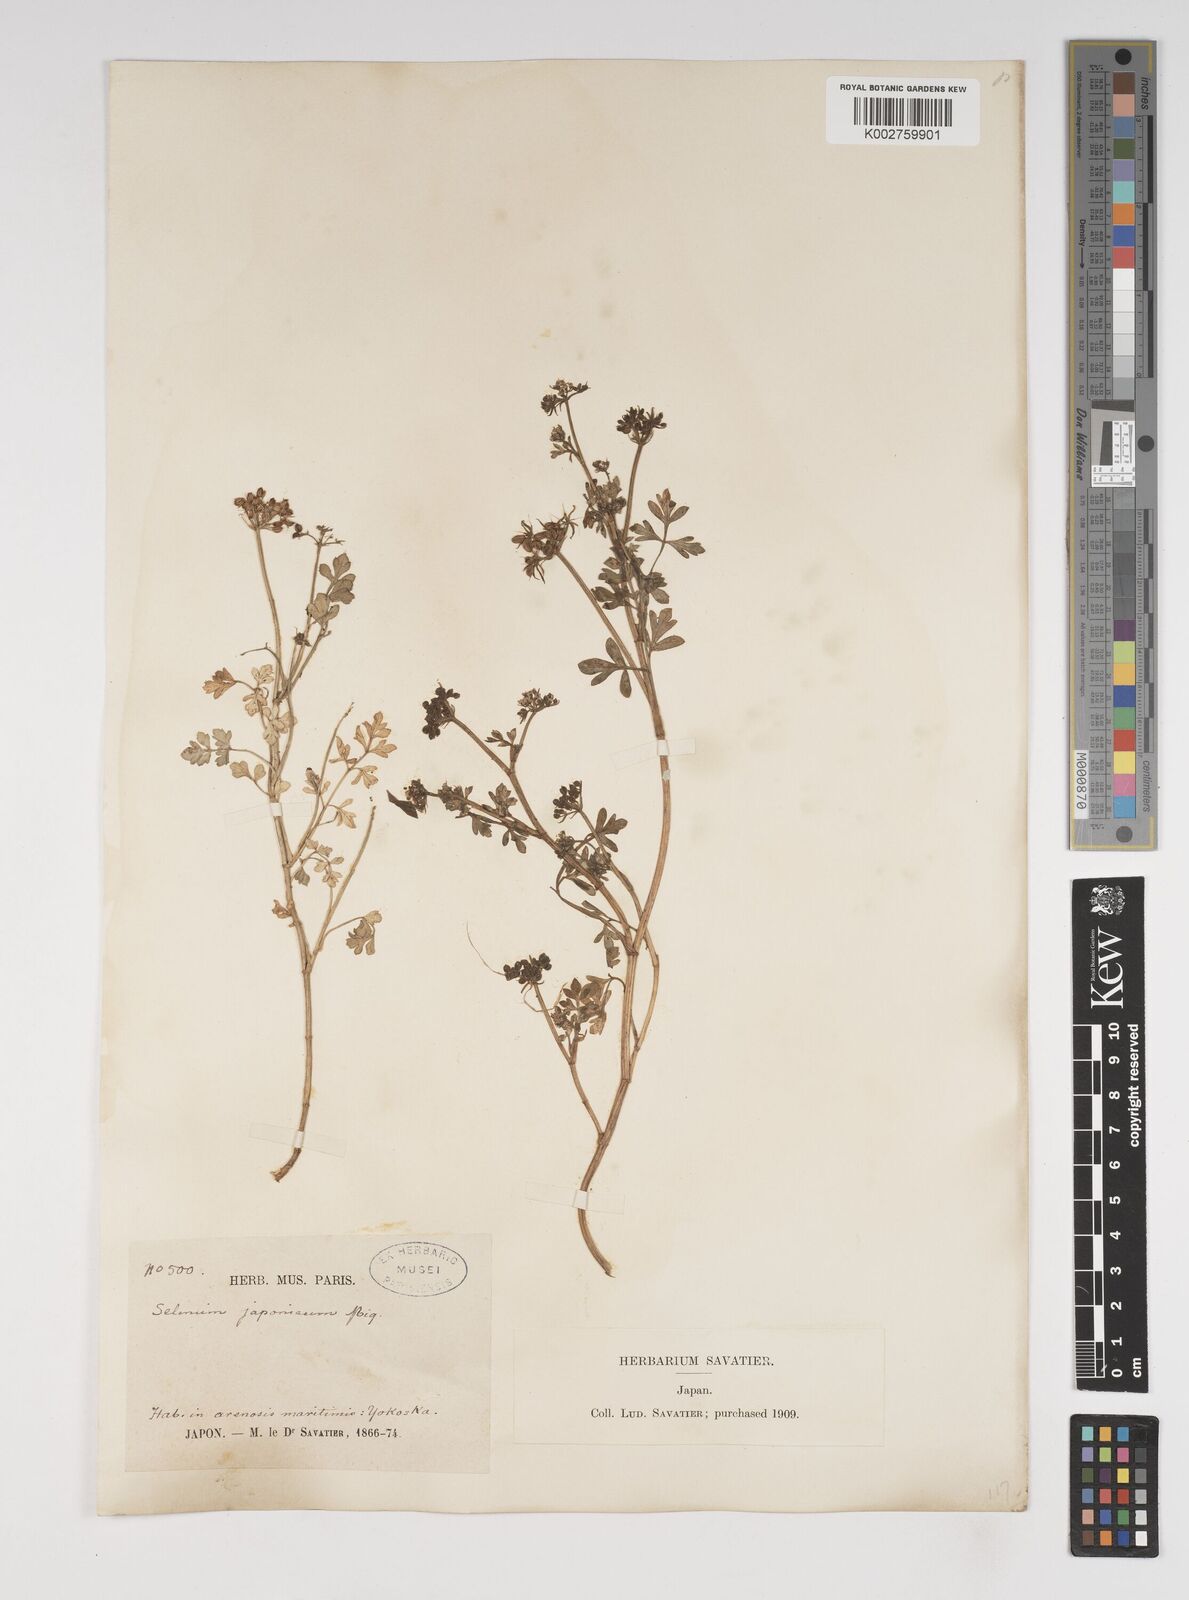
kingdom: Plantae
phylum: Tracheophyta
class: Magnoliopsida
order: Apiales
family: Apiaceae
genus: Cnidium
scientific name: Cnidium japonicum
